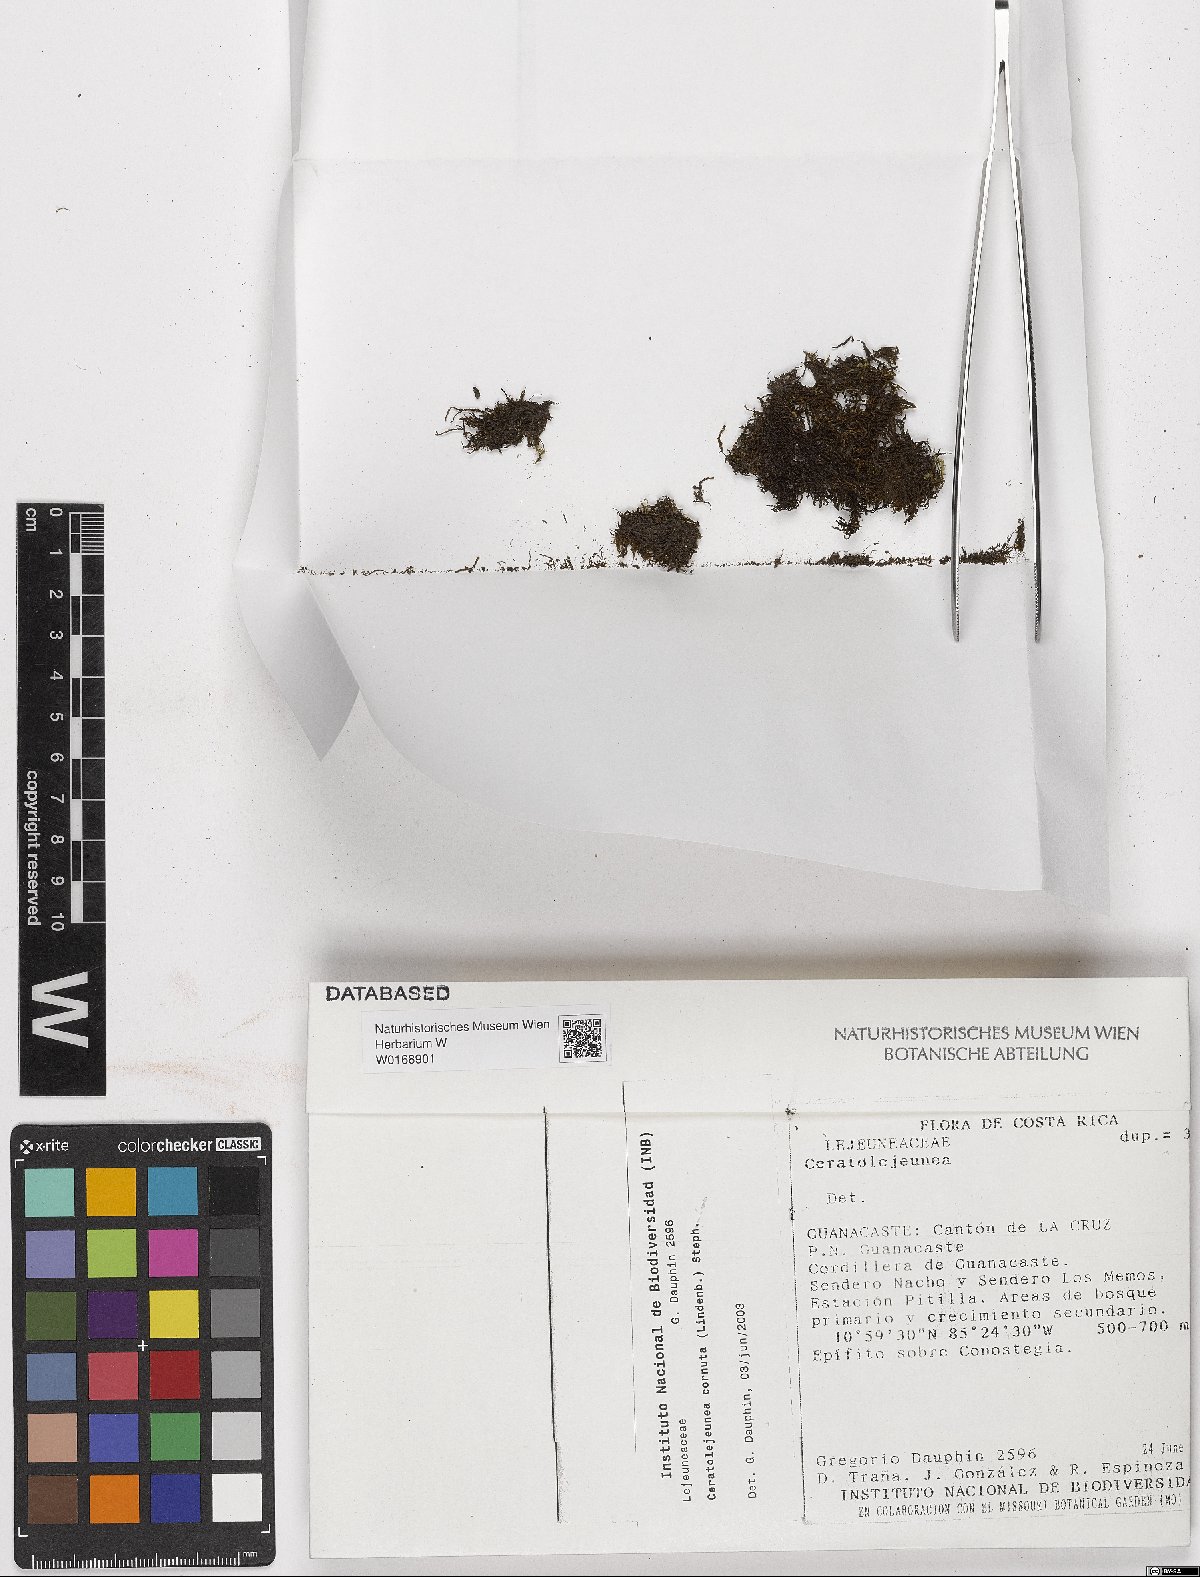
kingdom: Plantae
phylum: Marchantiophyta
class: Jungermanniopsida
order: Porellales
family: Lejeuneaceae
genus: Ceratolejeunea
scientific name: Ceratolejeunea cornuta
